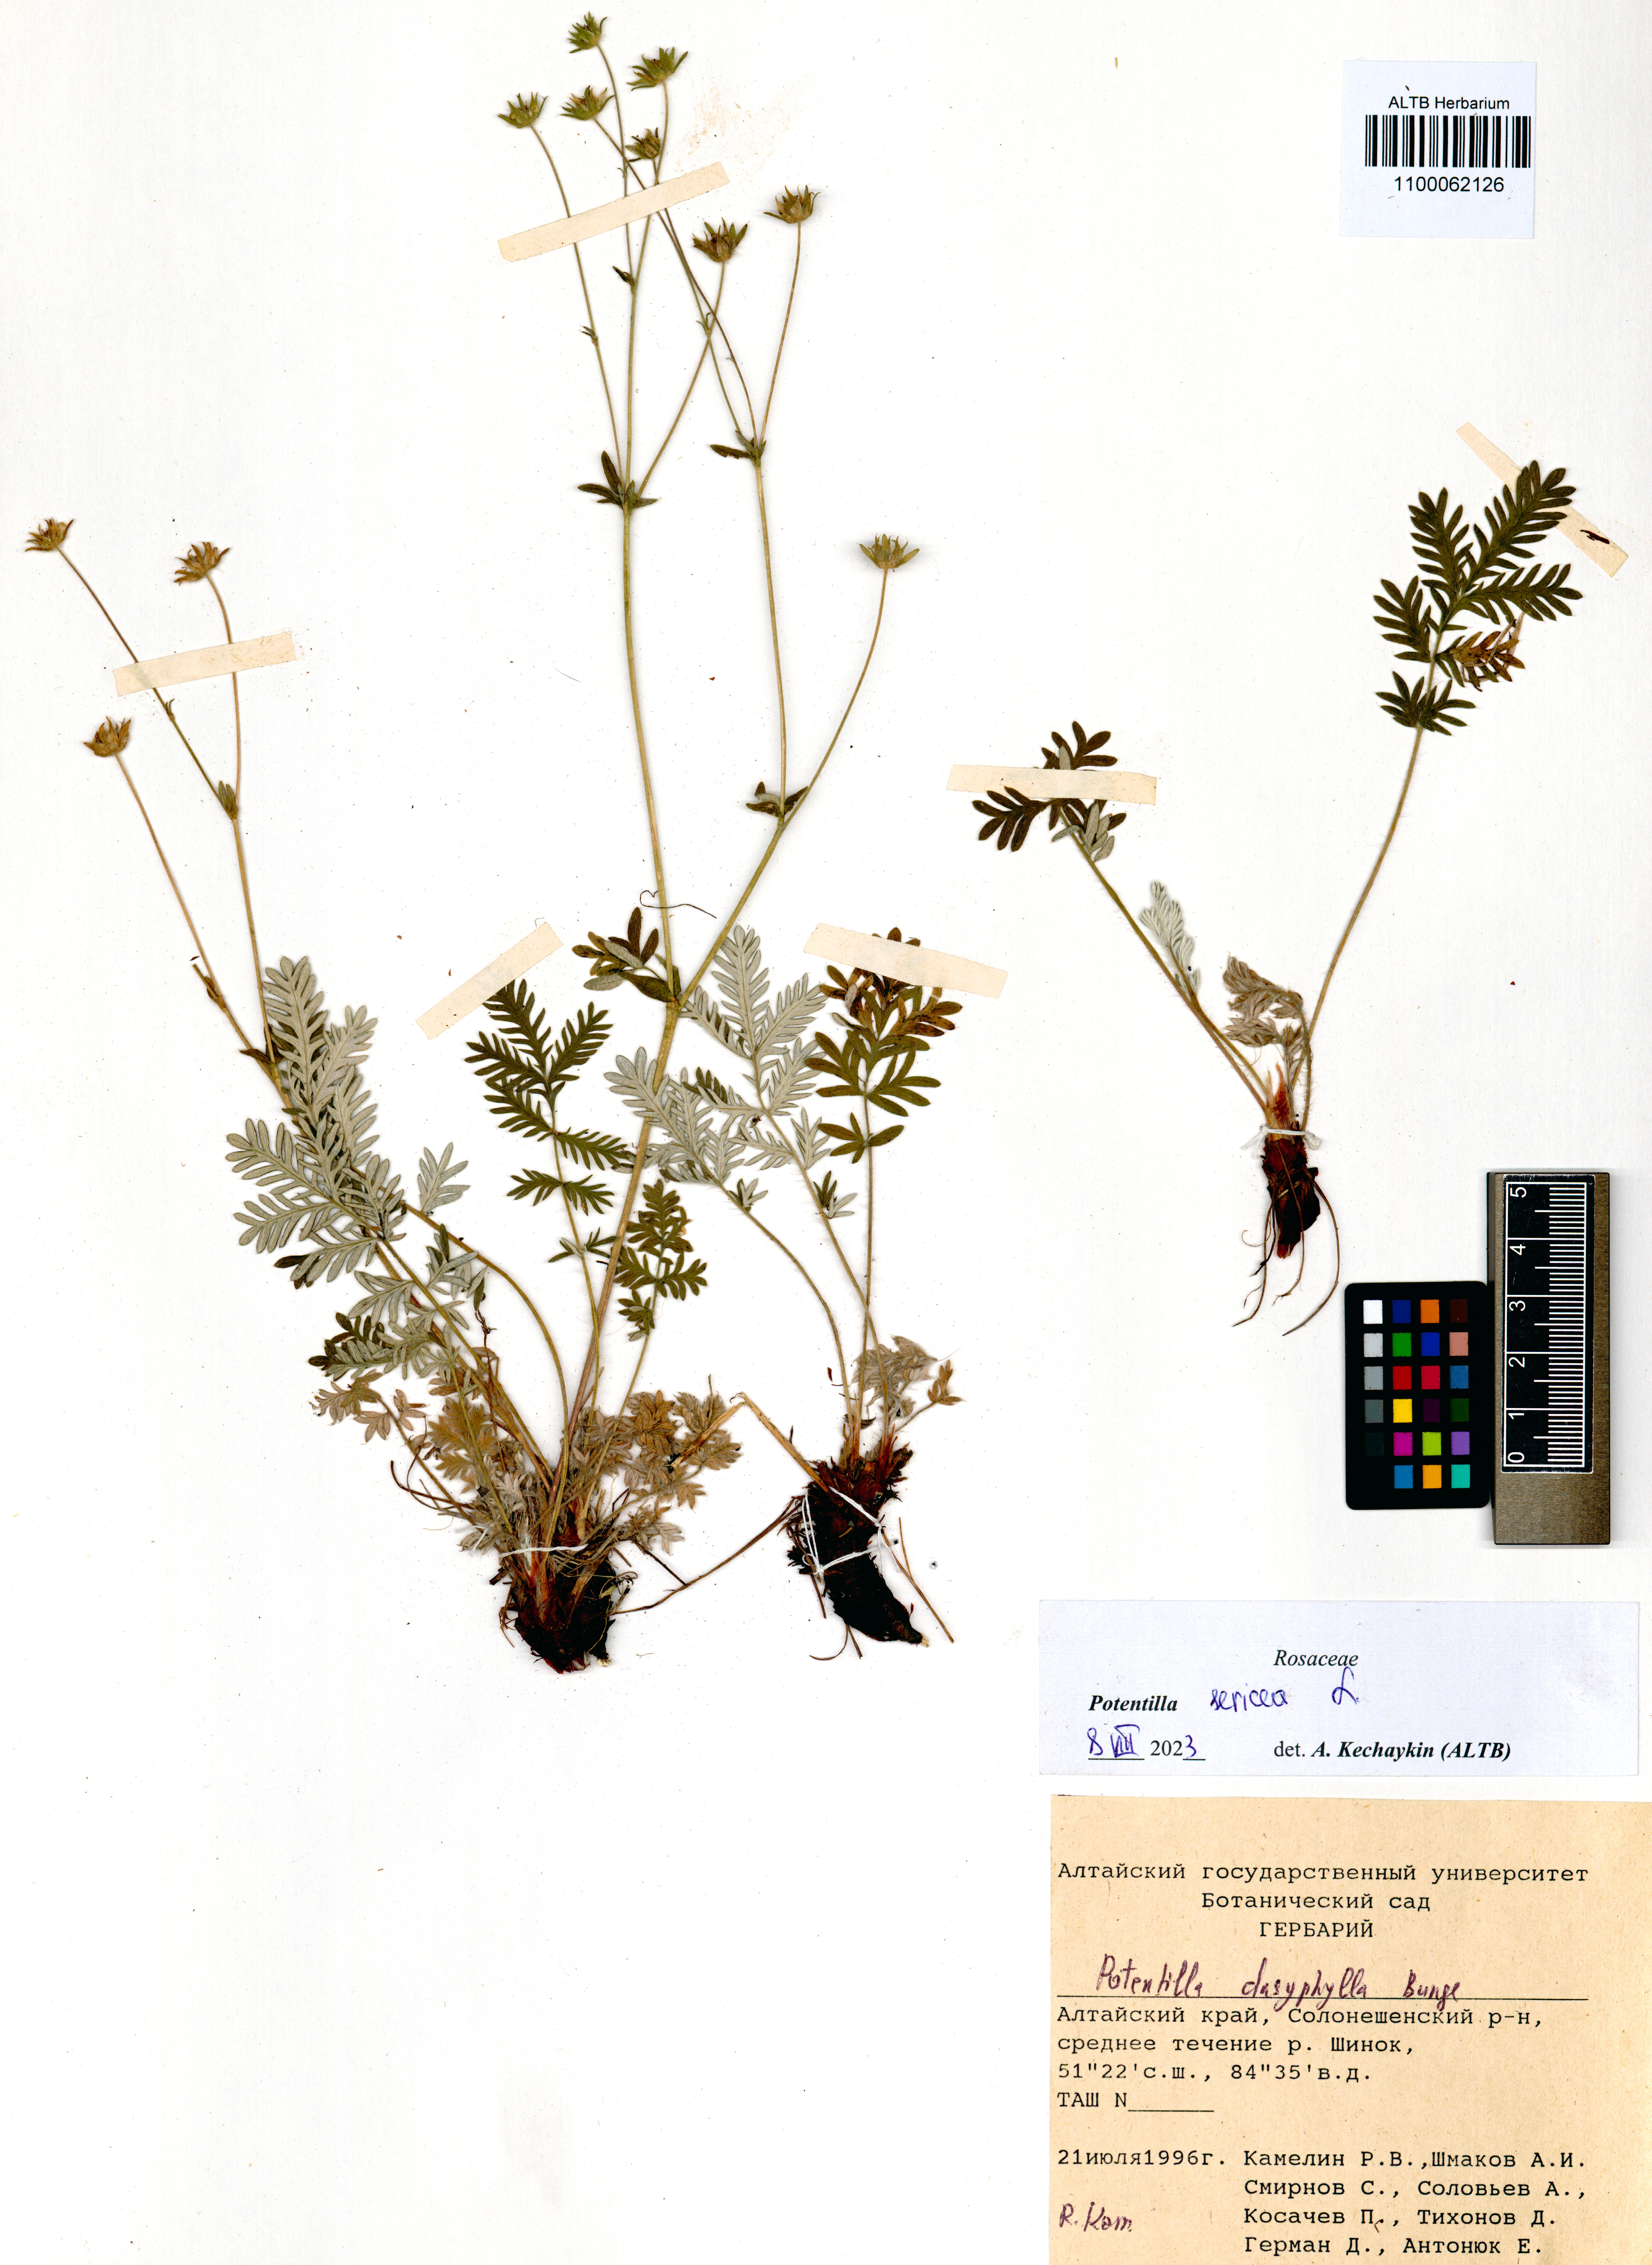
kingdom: Plantae
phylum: Tracheophyta
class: Magnoliopsida
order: Rosales
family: Rosaceae
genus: Potentilla
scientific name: Potentilla sericea
